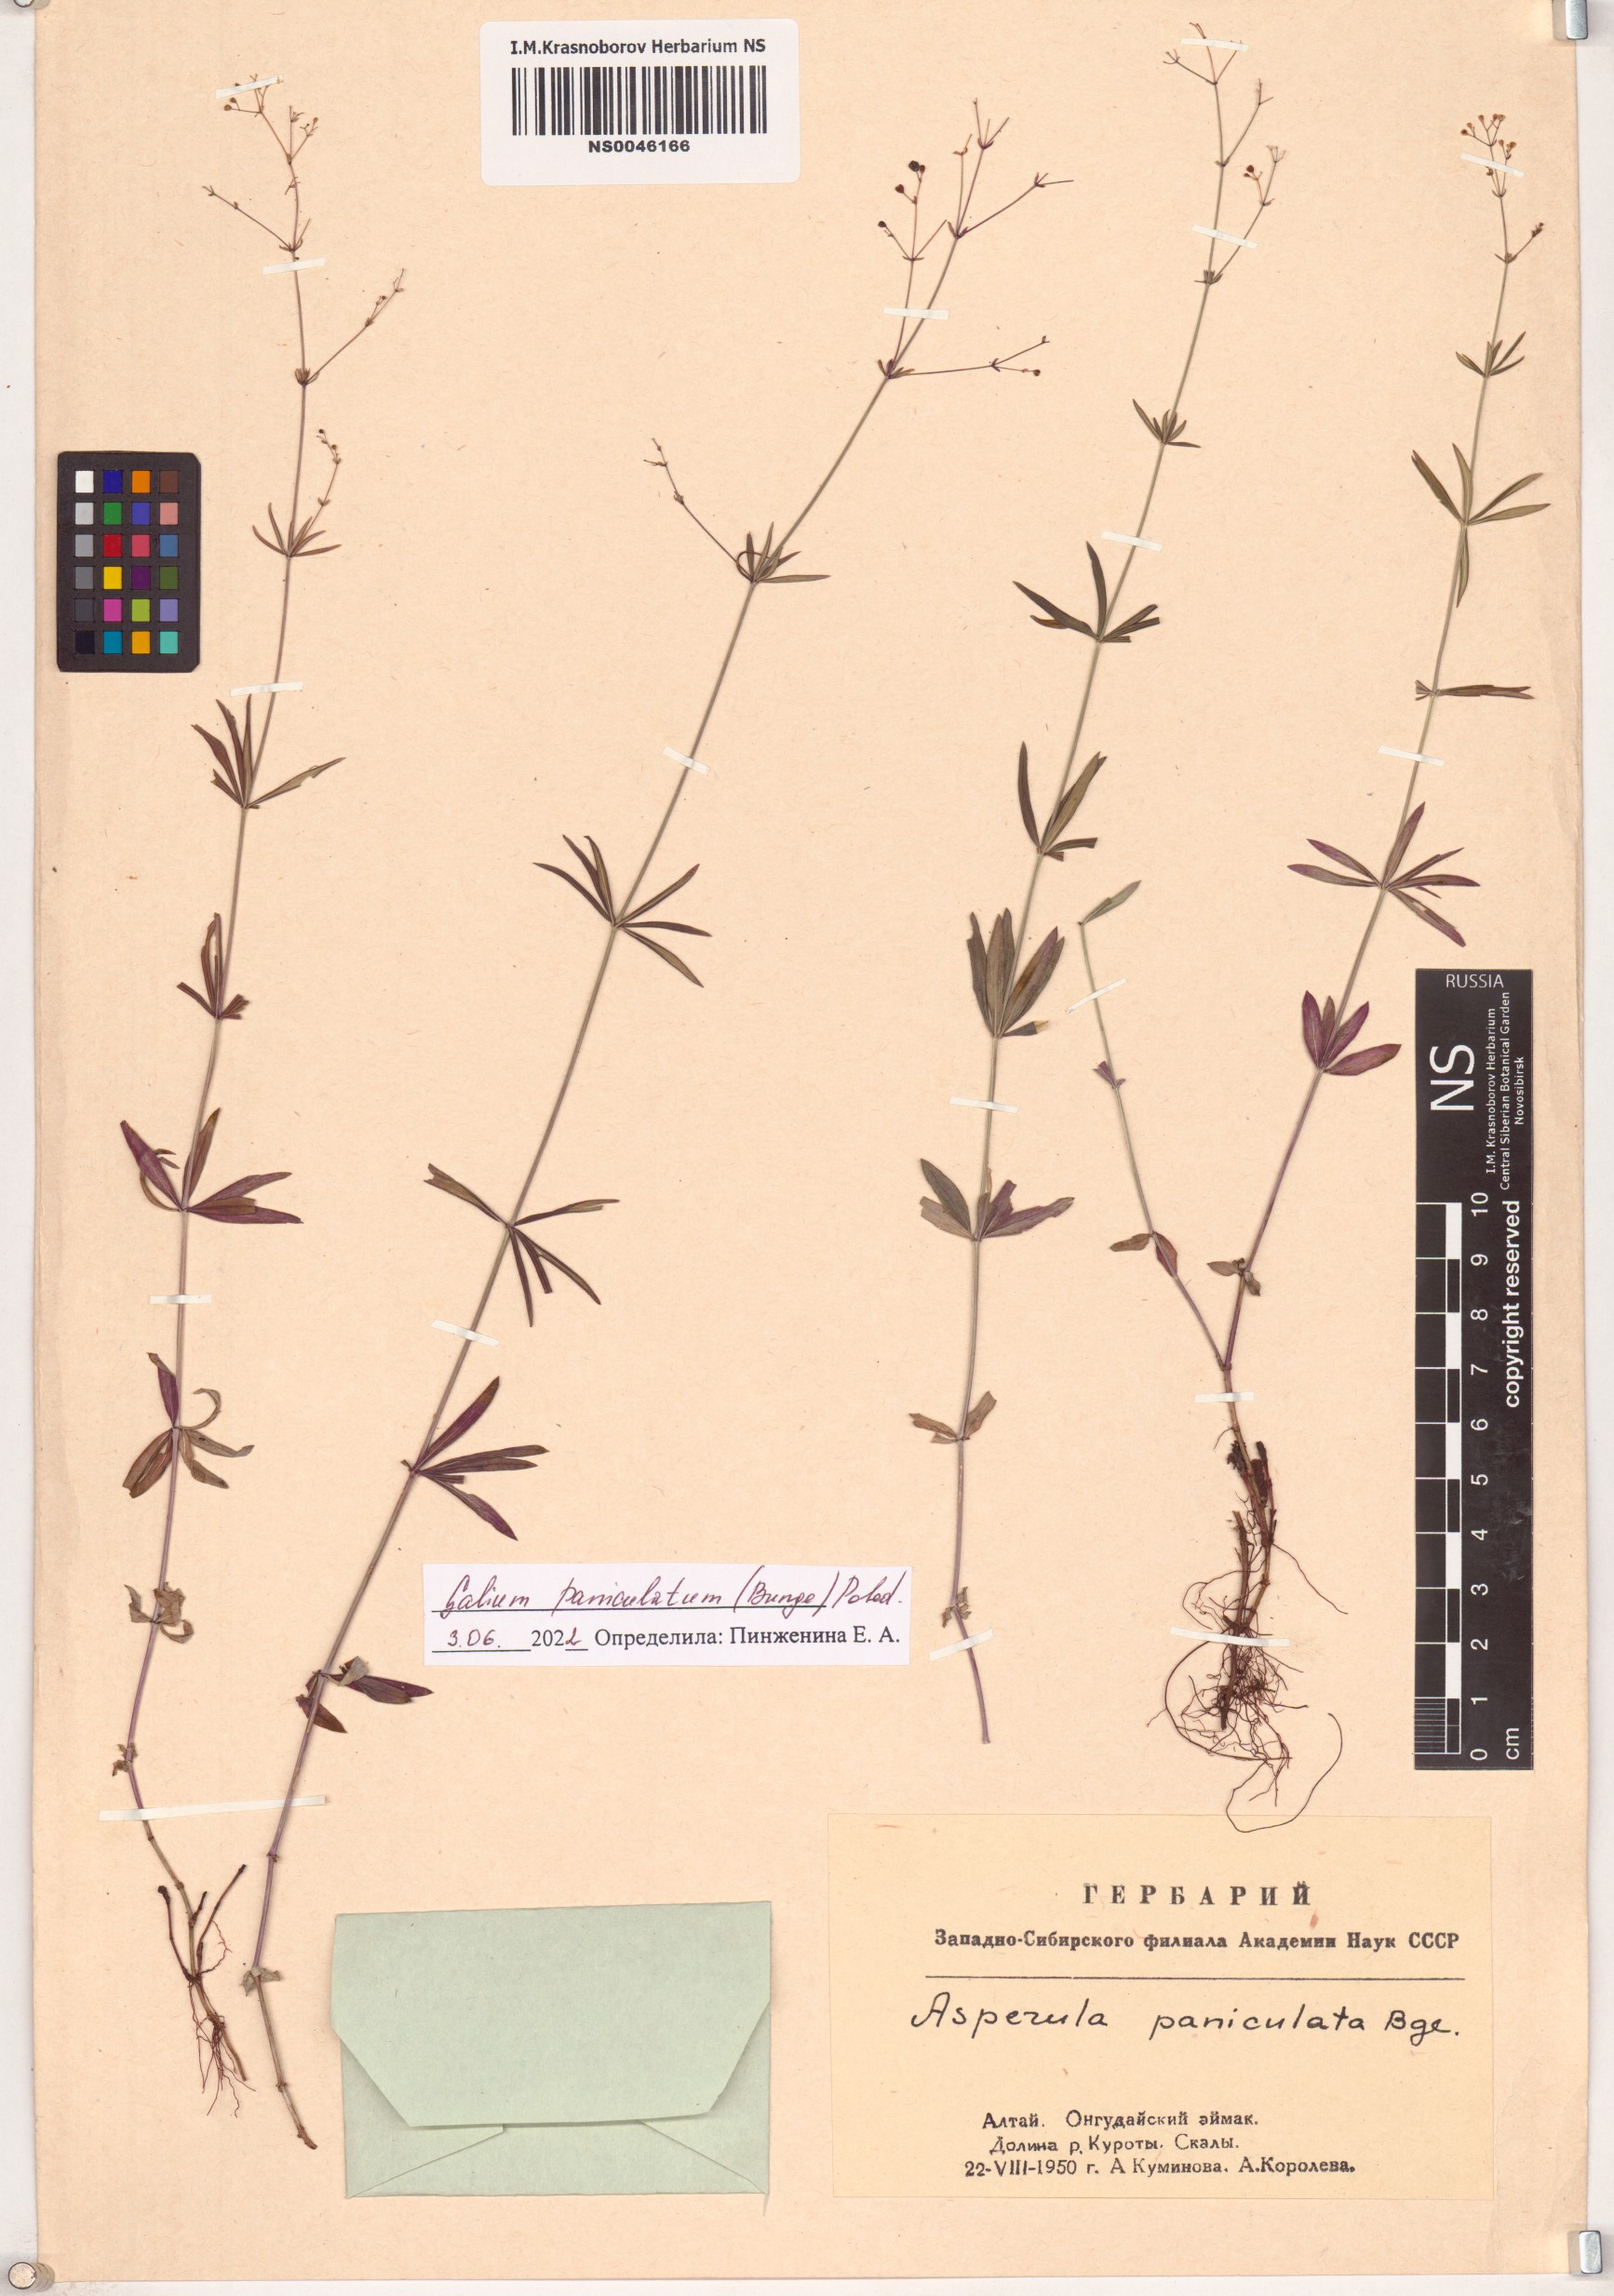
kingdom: Plantae
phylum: Tracheophyta
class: Magnoliopsida
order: Gentianales
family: Rubiaceae
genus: Galium
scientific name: Galium paniculatum
